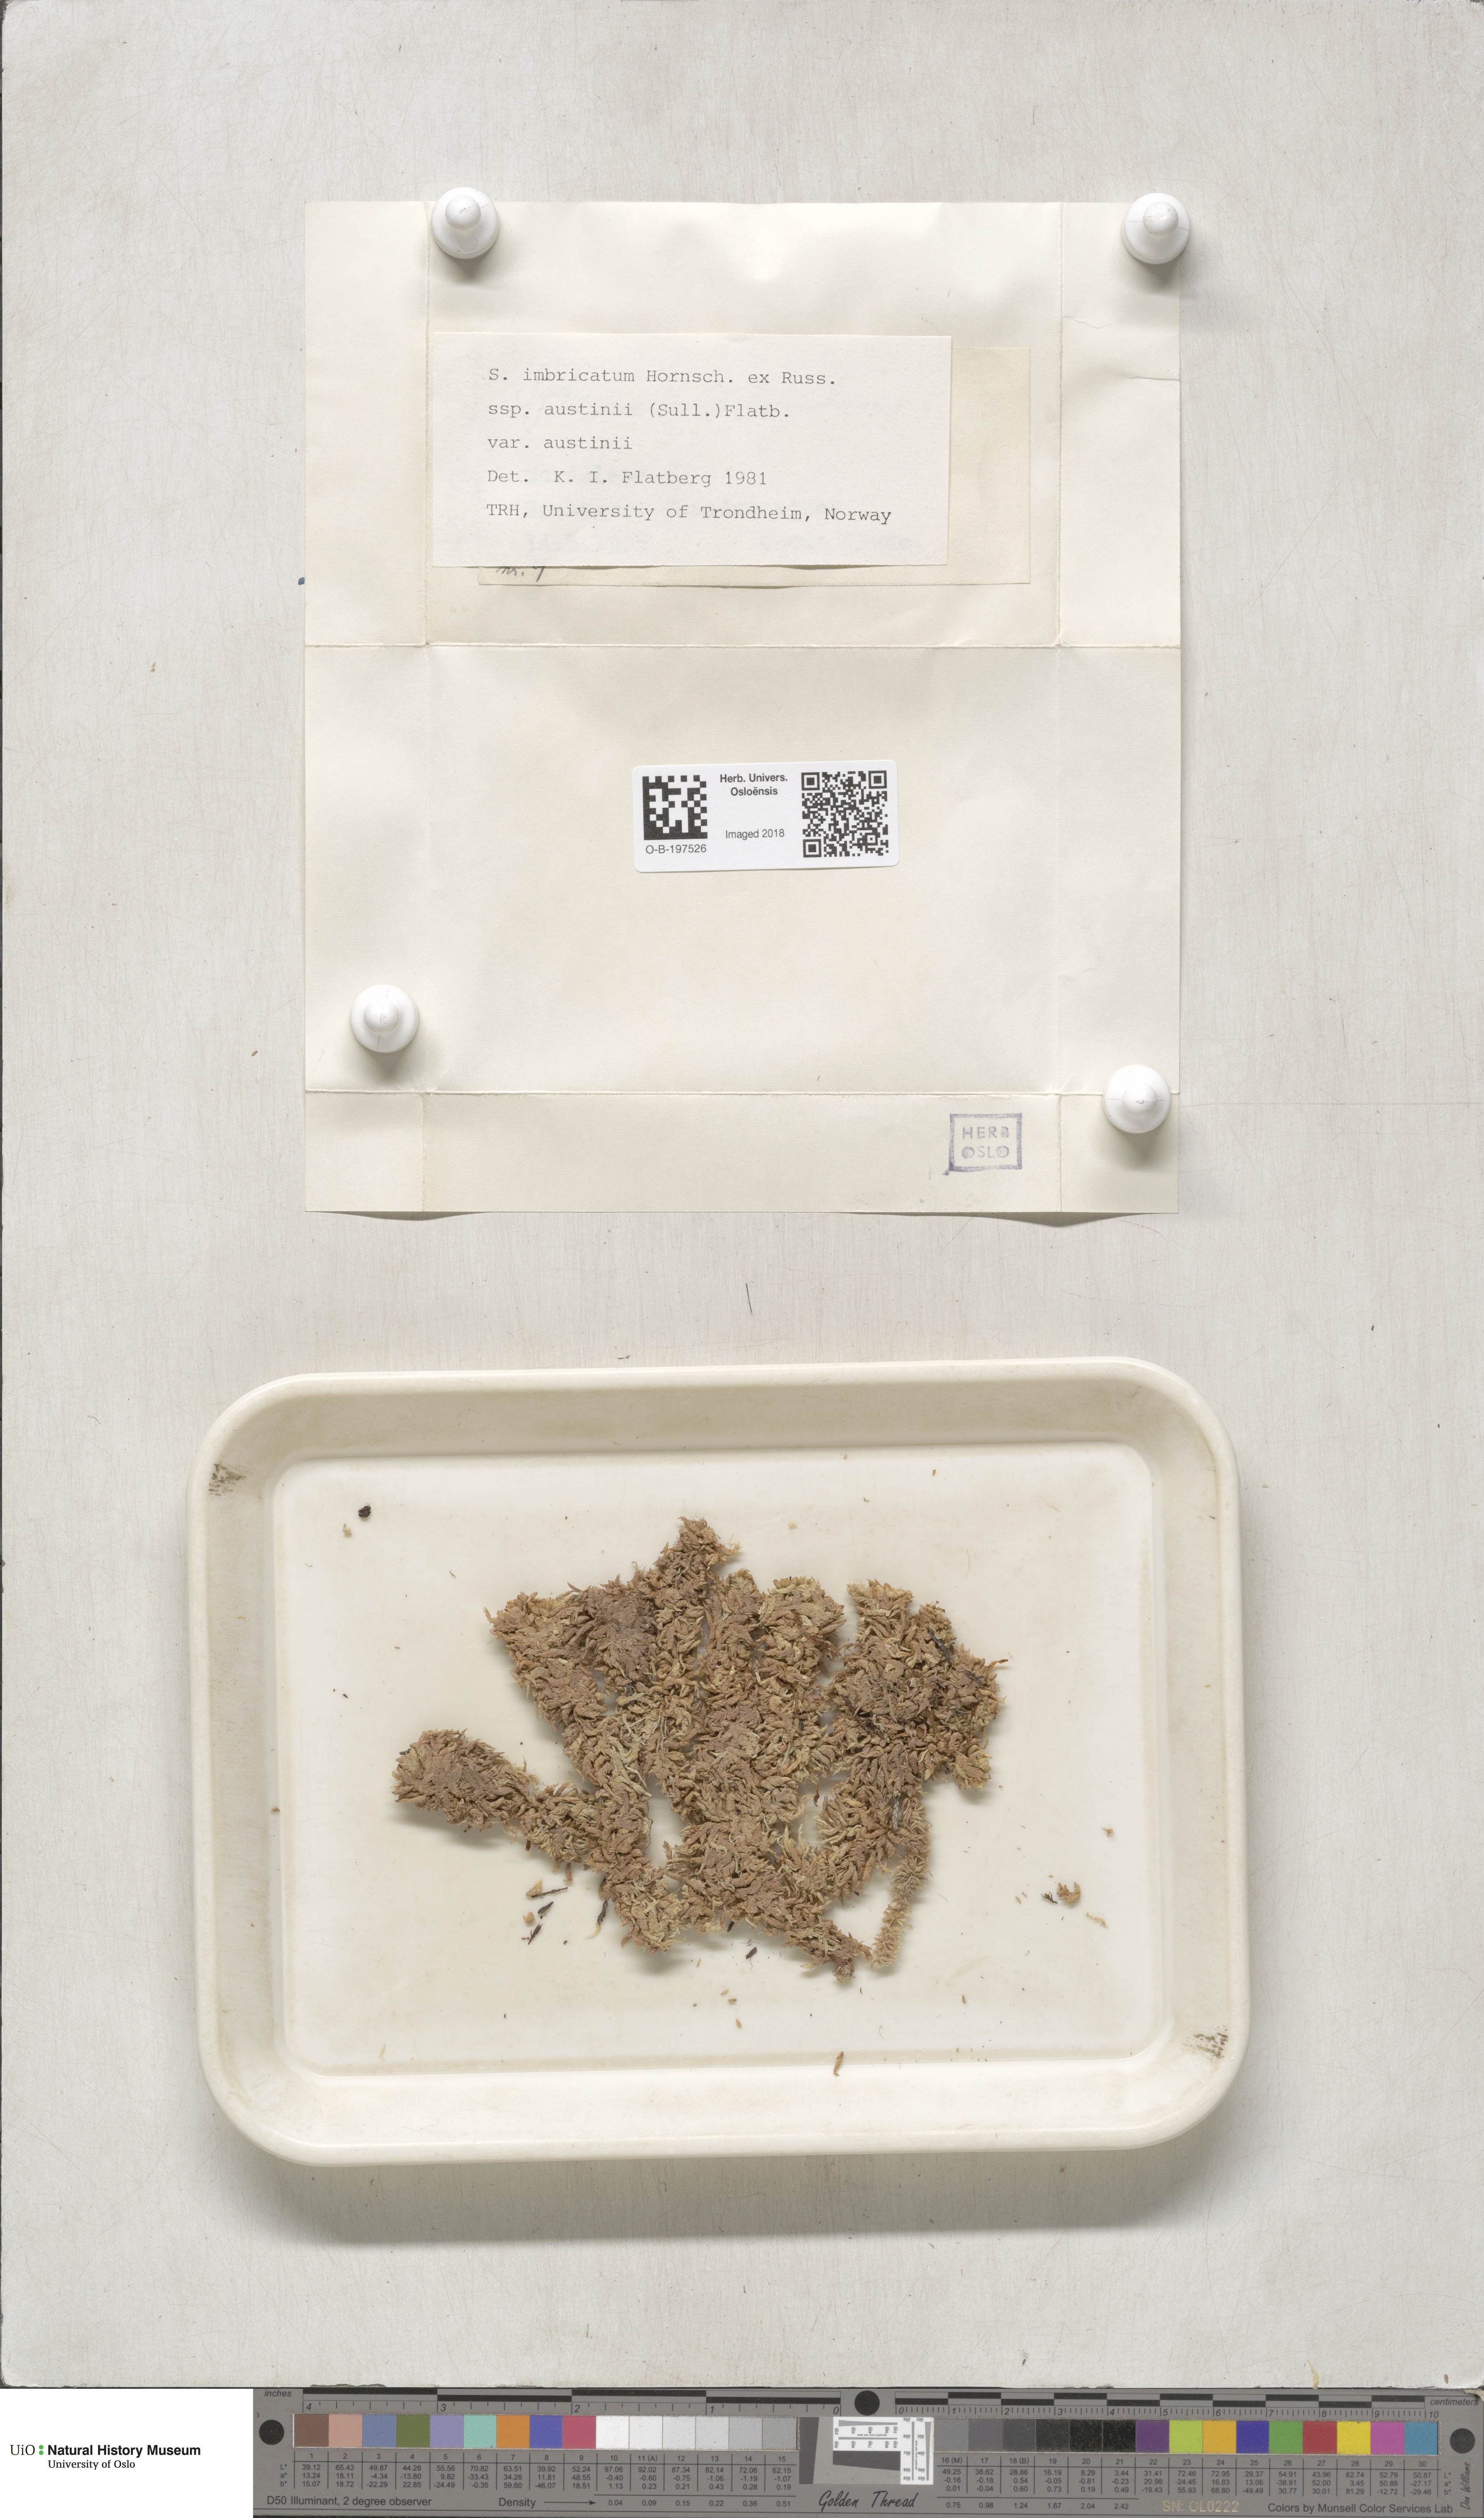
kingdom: Plantae
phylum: Bryophyta
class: Sphagnopsida
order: Sphagnales
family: Sphagnaceae
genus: Sphagnum
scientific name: Sphagnum austinii
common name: Austin's peat moss
